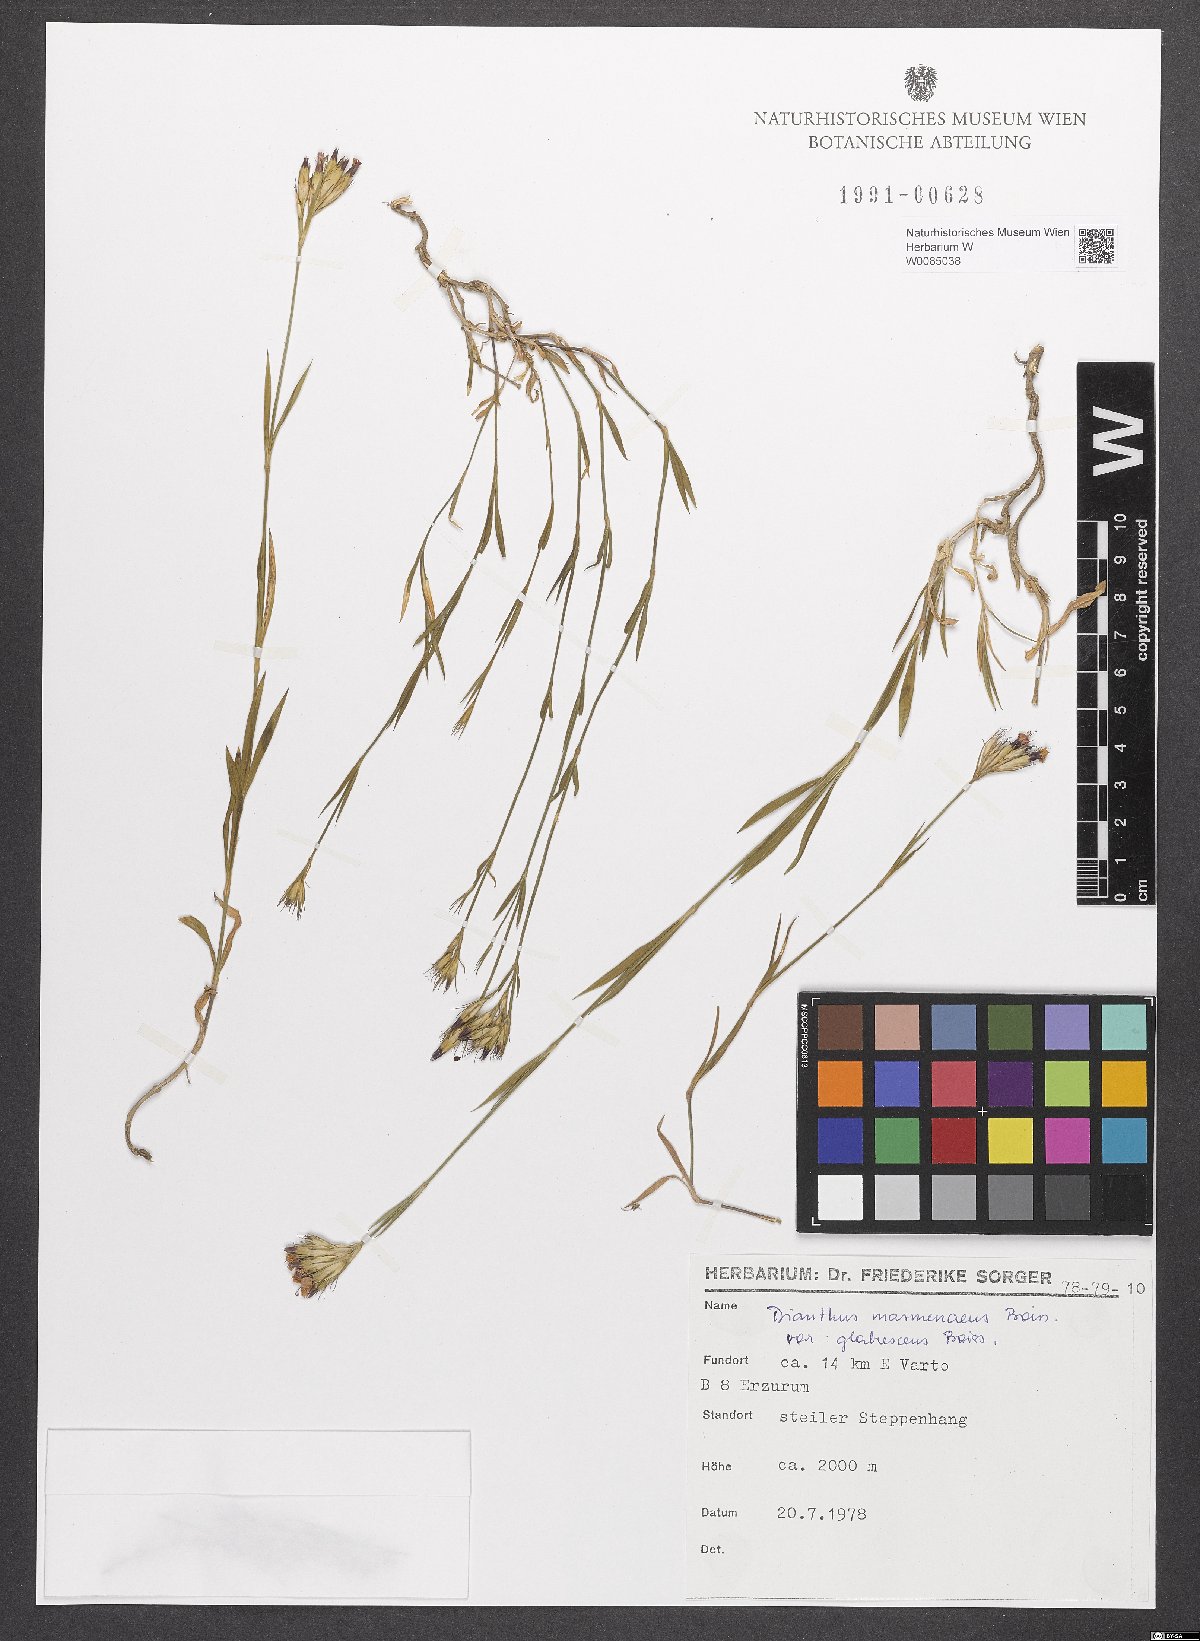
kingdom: Plantae
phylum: Tracheophyta
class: Magnoliopsida
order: Caryophyllales
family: Caryophyllaceae
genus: Dianthus
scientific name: Dianthus masmenaeus
